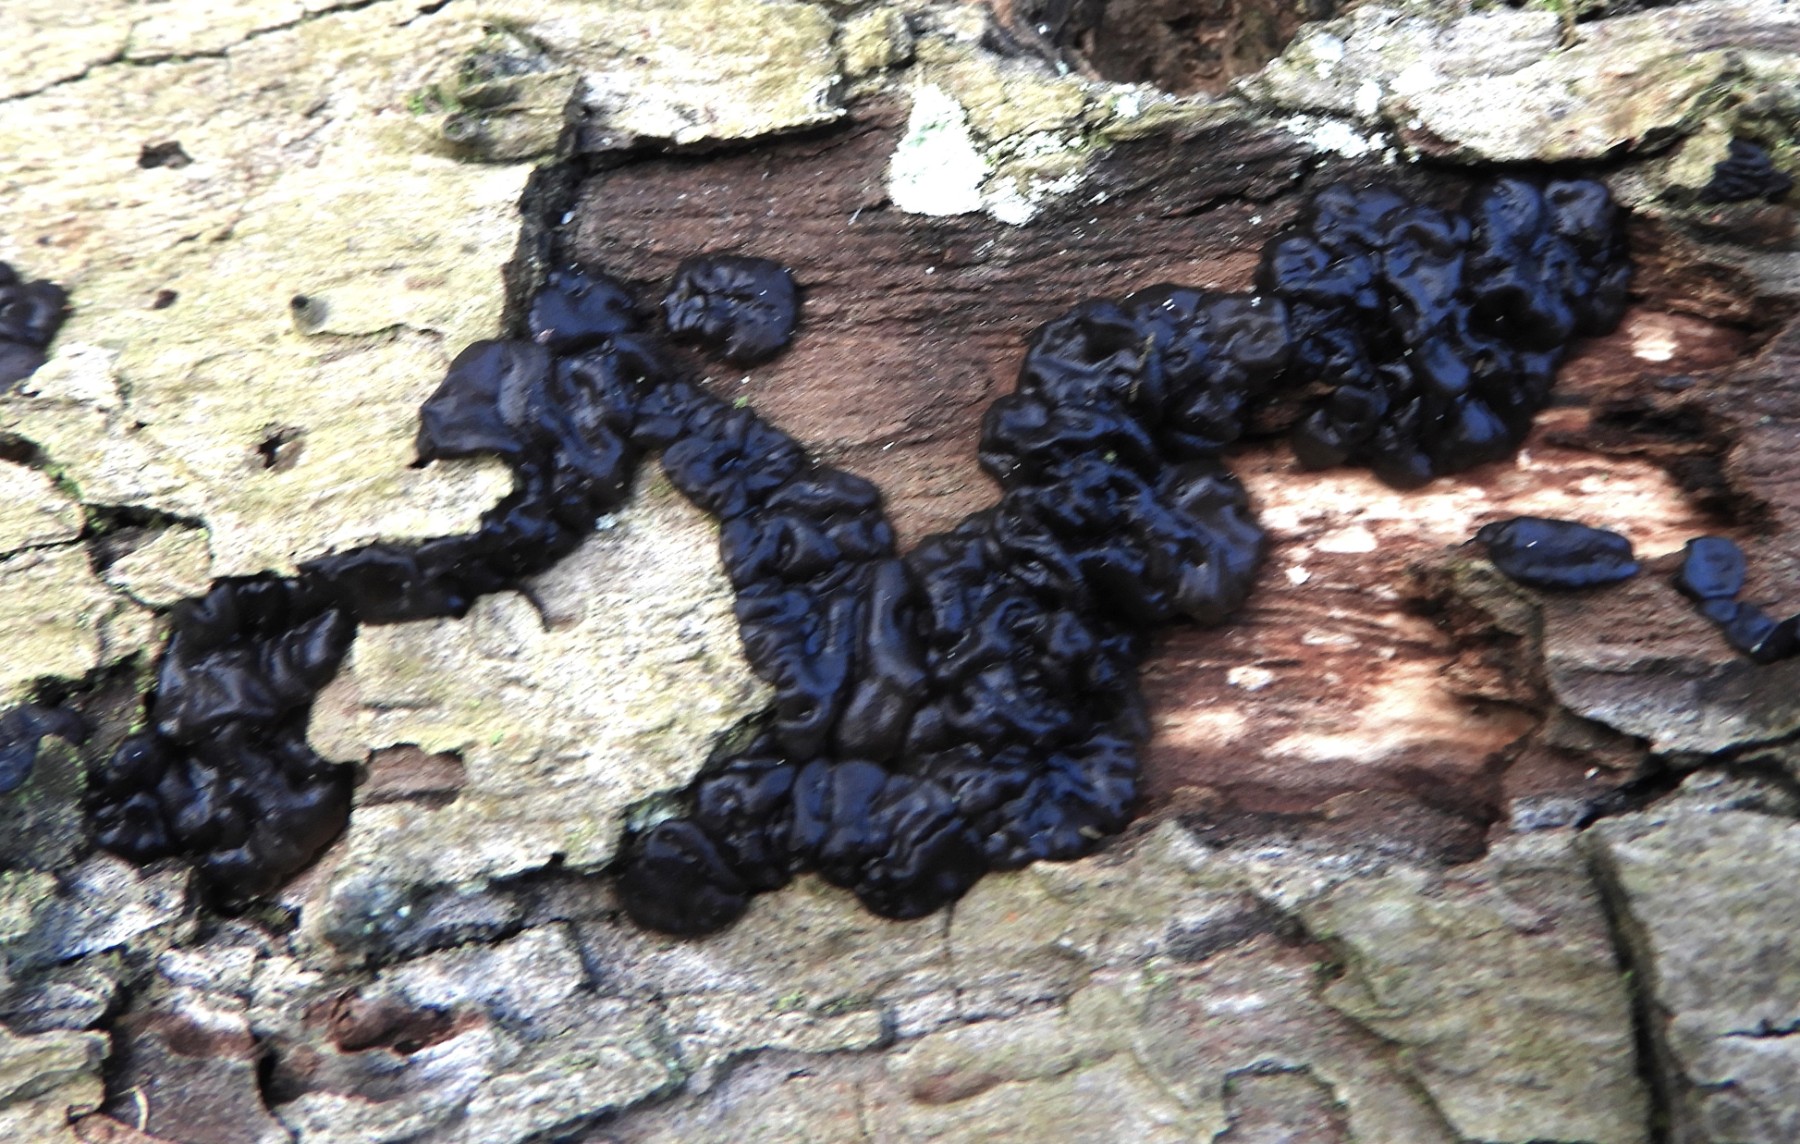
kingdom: Fungi
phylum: Basidiomycota
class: Agaricomycetes
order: Auriculariales
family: Auriculariaceae
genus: Exidia
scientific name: Exidia nigricans
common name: almindelig bævretop
